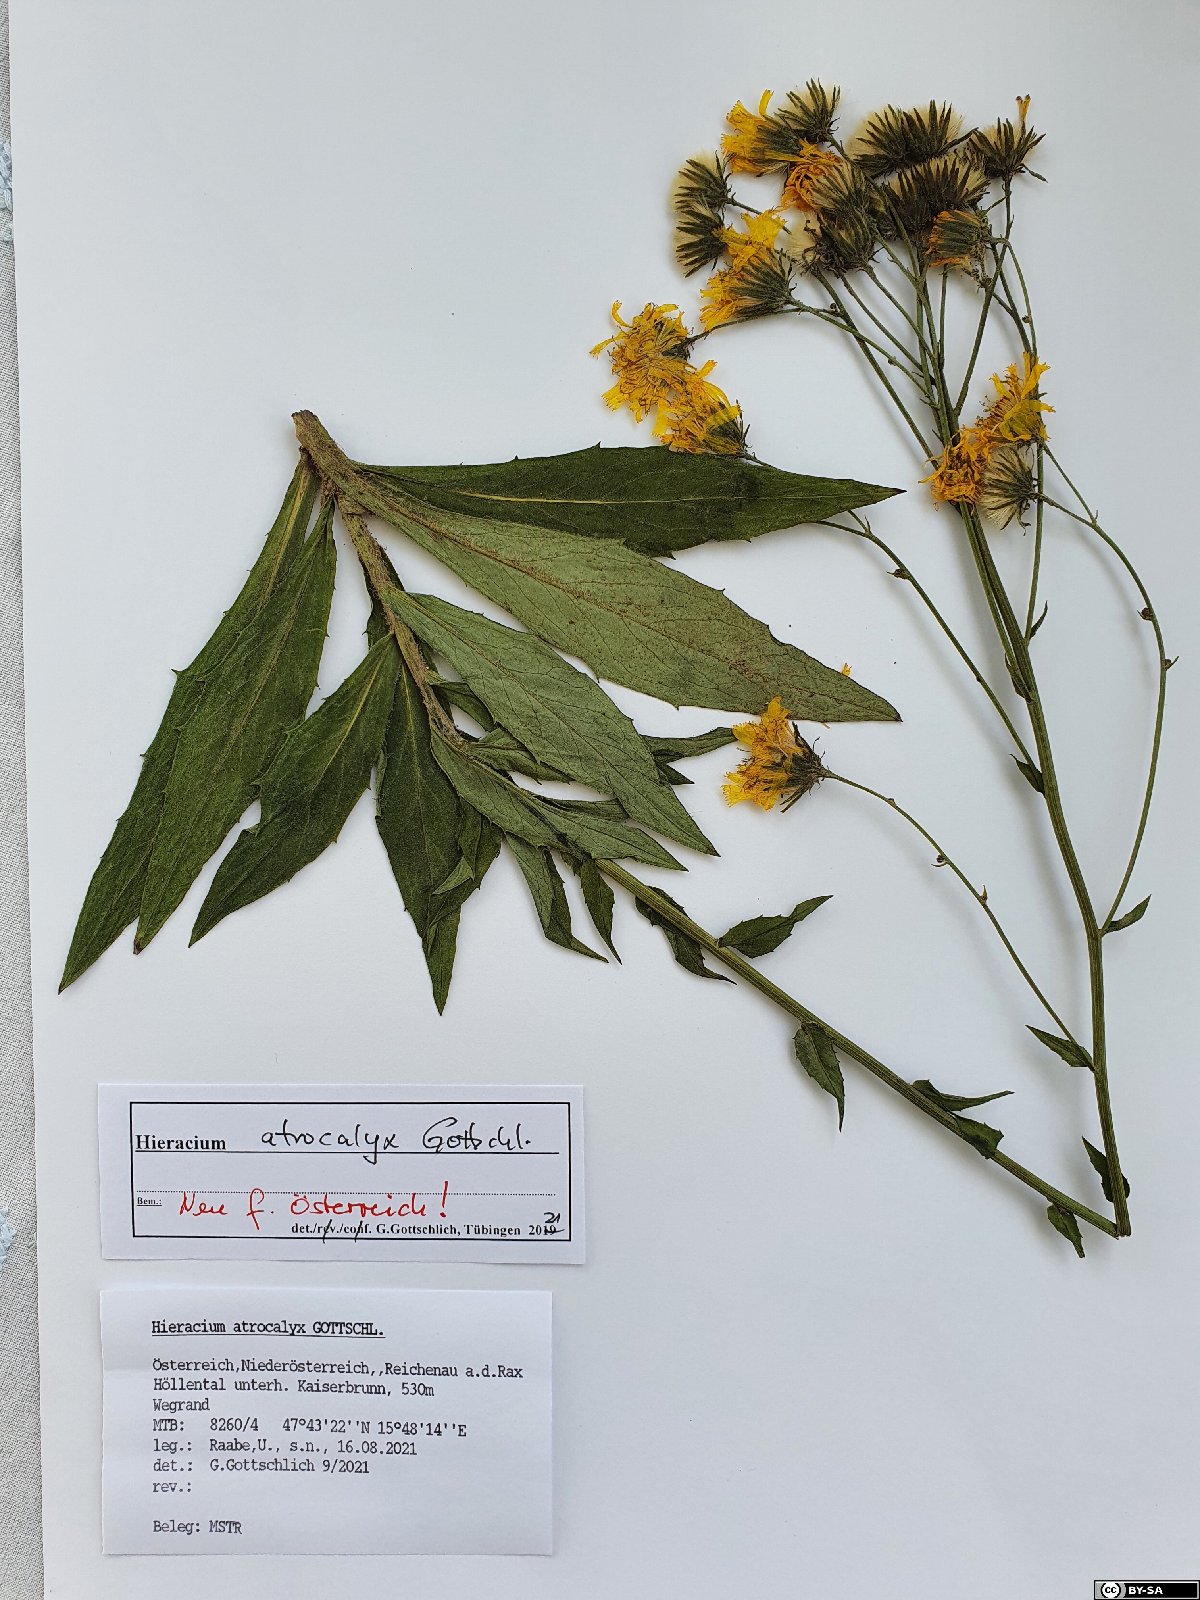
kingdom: Plantae
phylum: Tracheophyta
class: Magnoliopsida
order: Asterales
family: Asteraceae
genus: Hieracium
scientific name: Hieracium atrocalyx
